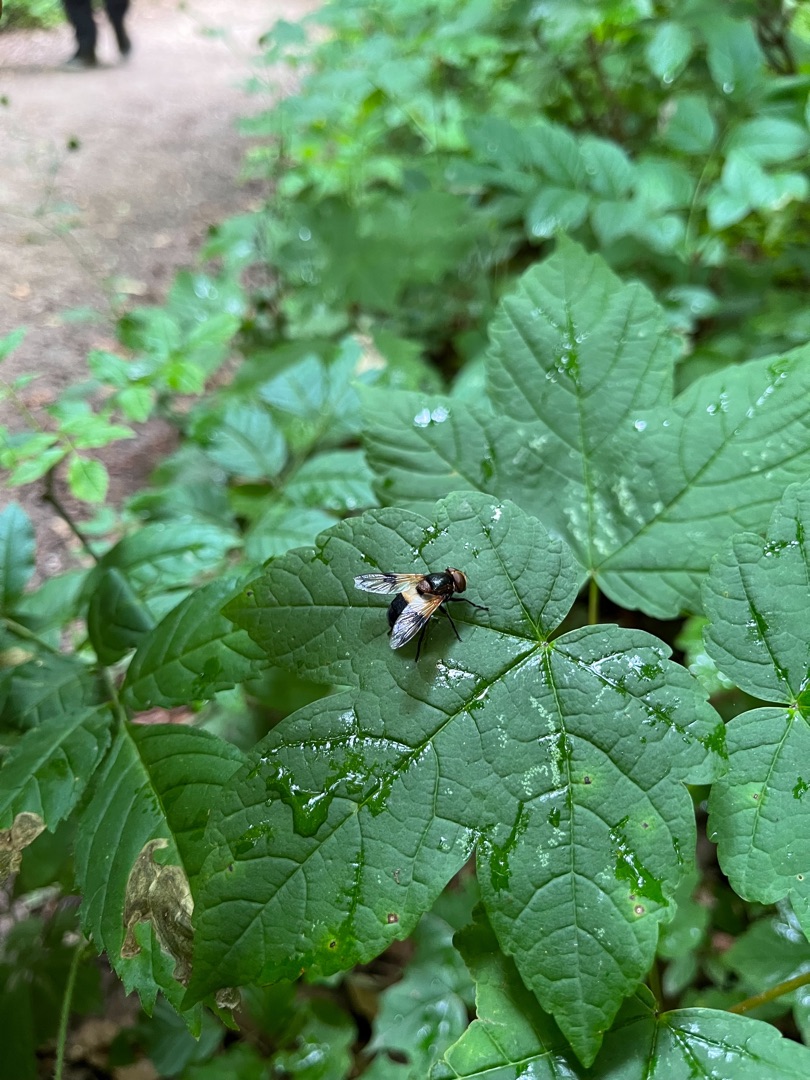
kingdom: Animalia
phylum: Arthropoda
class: Insecta
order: Diptera
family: Syrphidae
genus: Volucella
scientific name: Volucella pellucens
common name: Hvidbåndet humlesvirreflue
